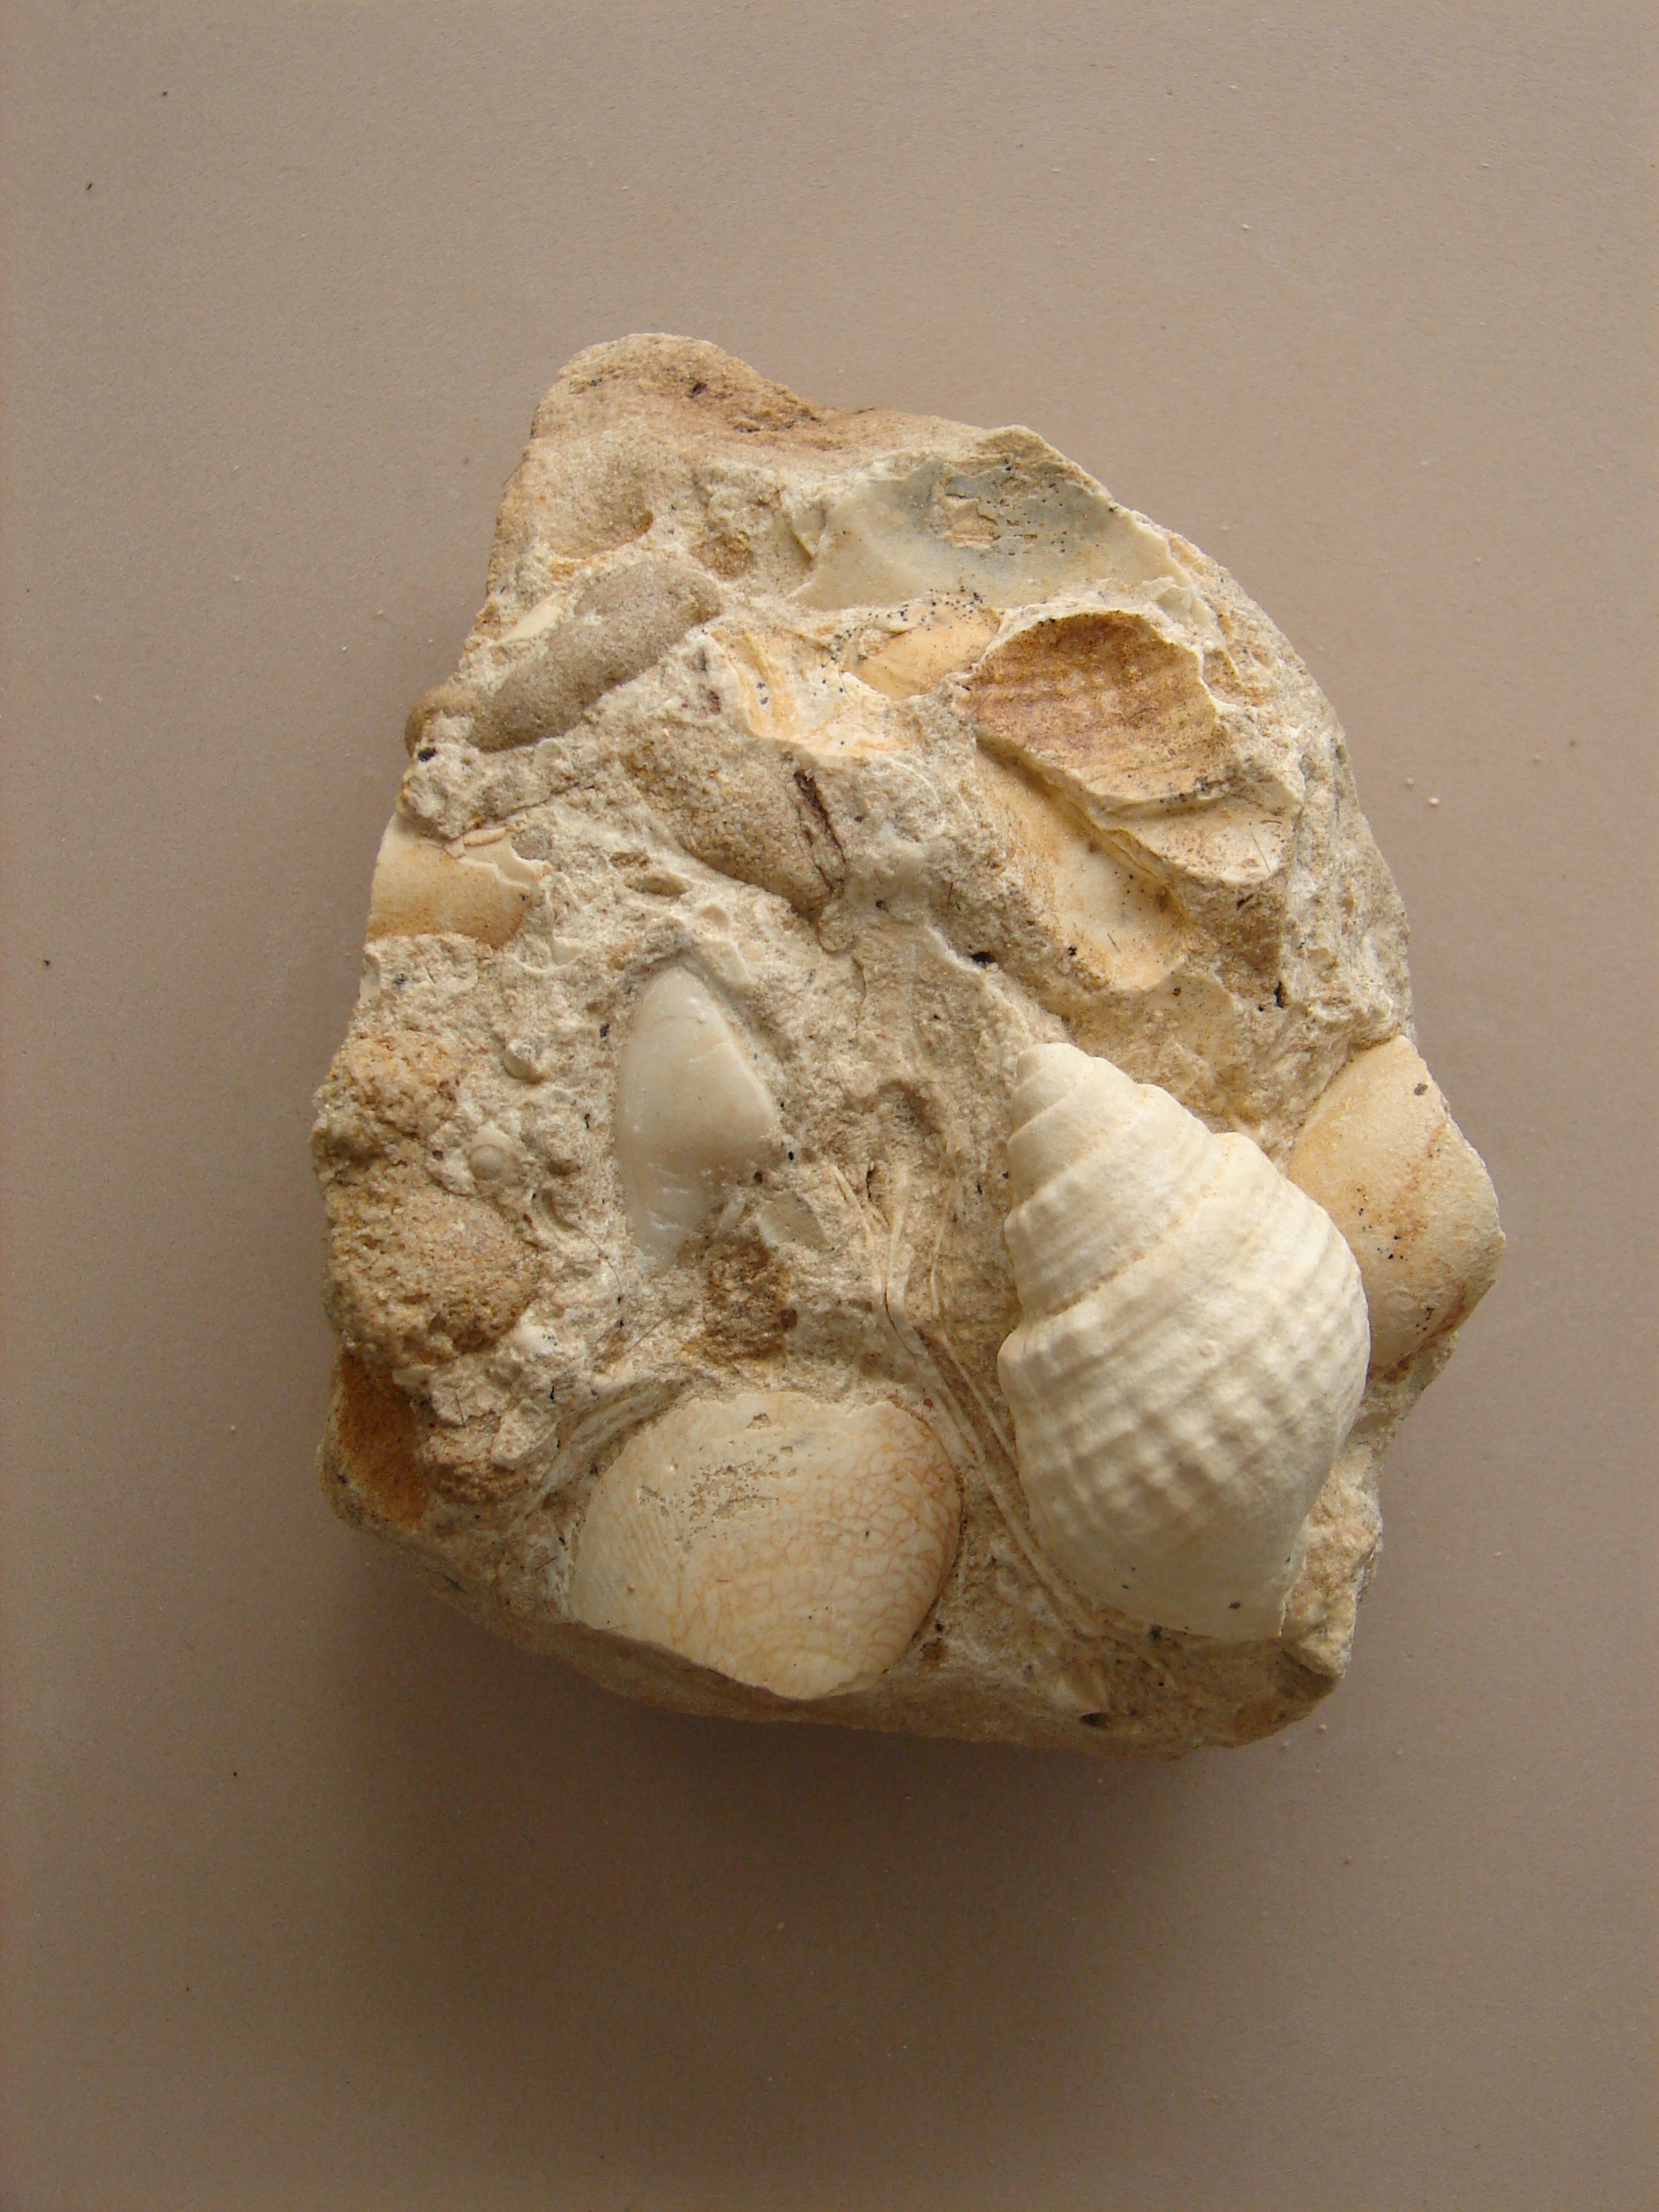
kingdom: Animalia
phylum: Mollusca
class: Gastropoda
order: Neogastropoda
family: Purpurinidae
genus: Microschiza
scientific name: Microschiza Turbo semiornatus
